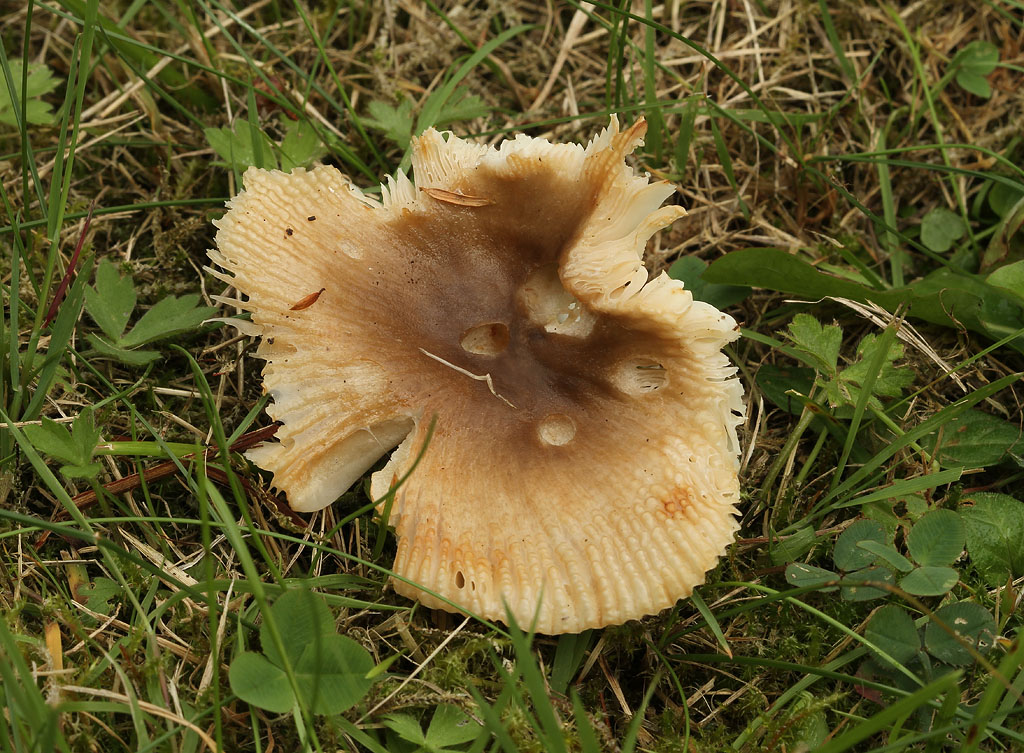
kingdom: Fungi
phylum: Basidiomycota
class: Agaricomycetes
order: Russulales
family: Russulaceae
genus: Russula
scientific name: Russula recondita
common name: mild kam-skørhat
